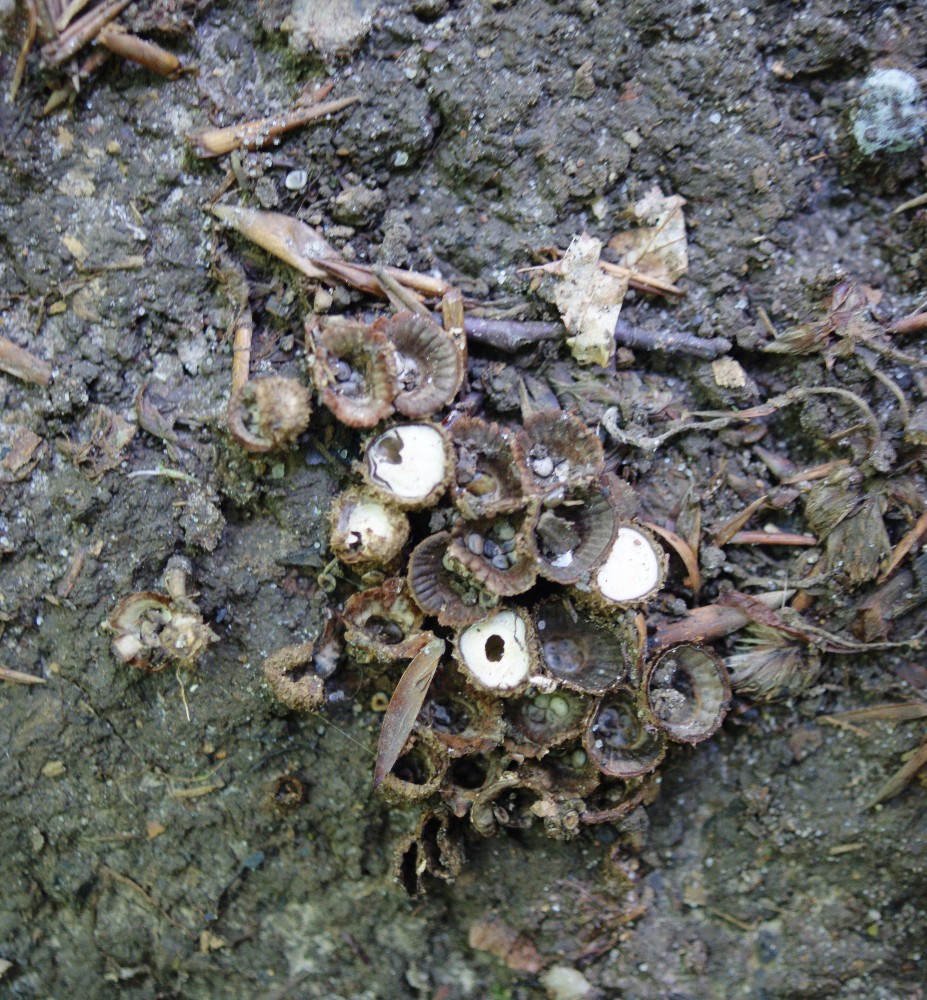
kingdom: Fungi
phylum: Basidiomycota
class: Agaricomycetes
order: Agaricales
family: Agaricaceae
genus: Cyathus
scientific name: Cyathus striatus
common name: stribet redesvamp
